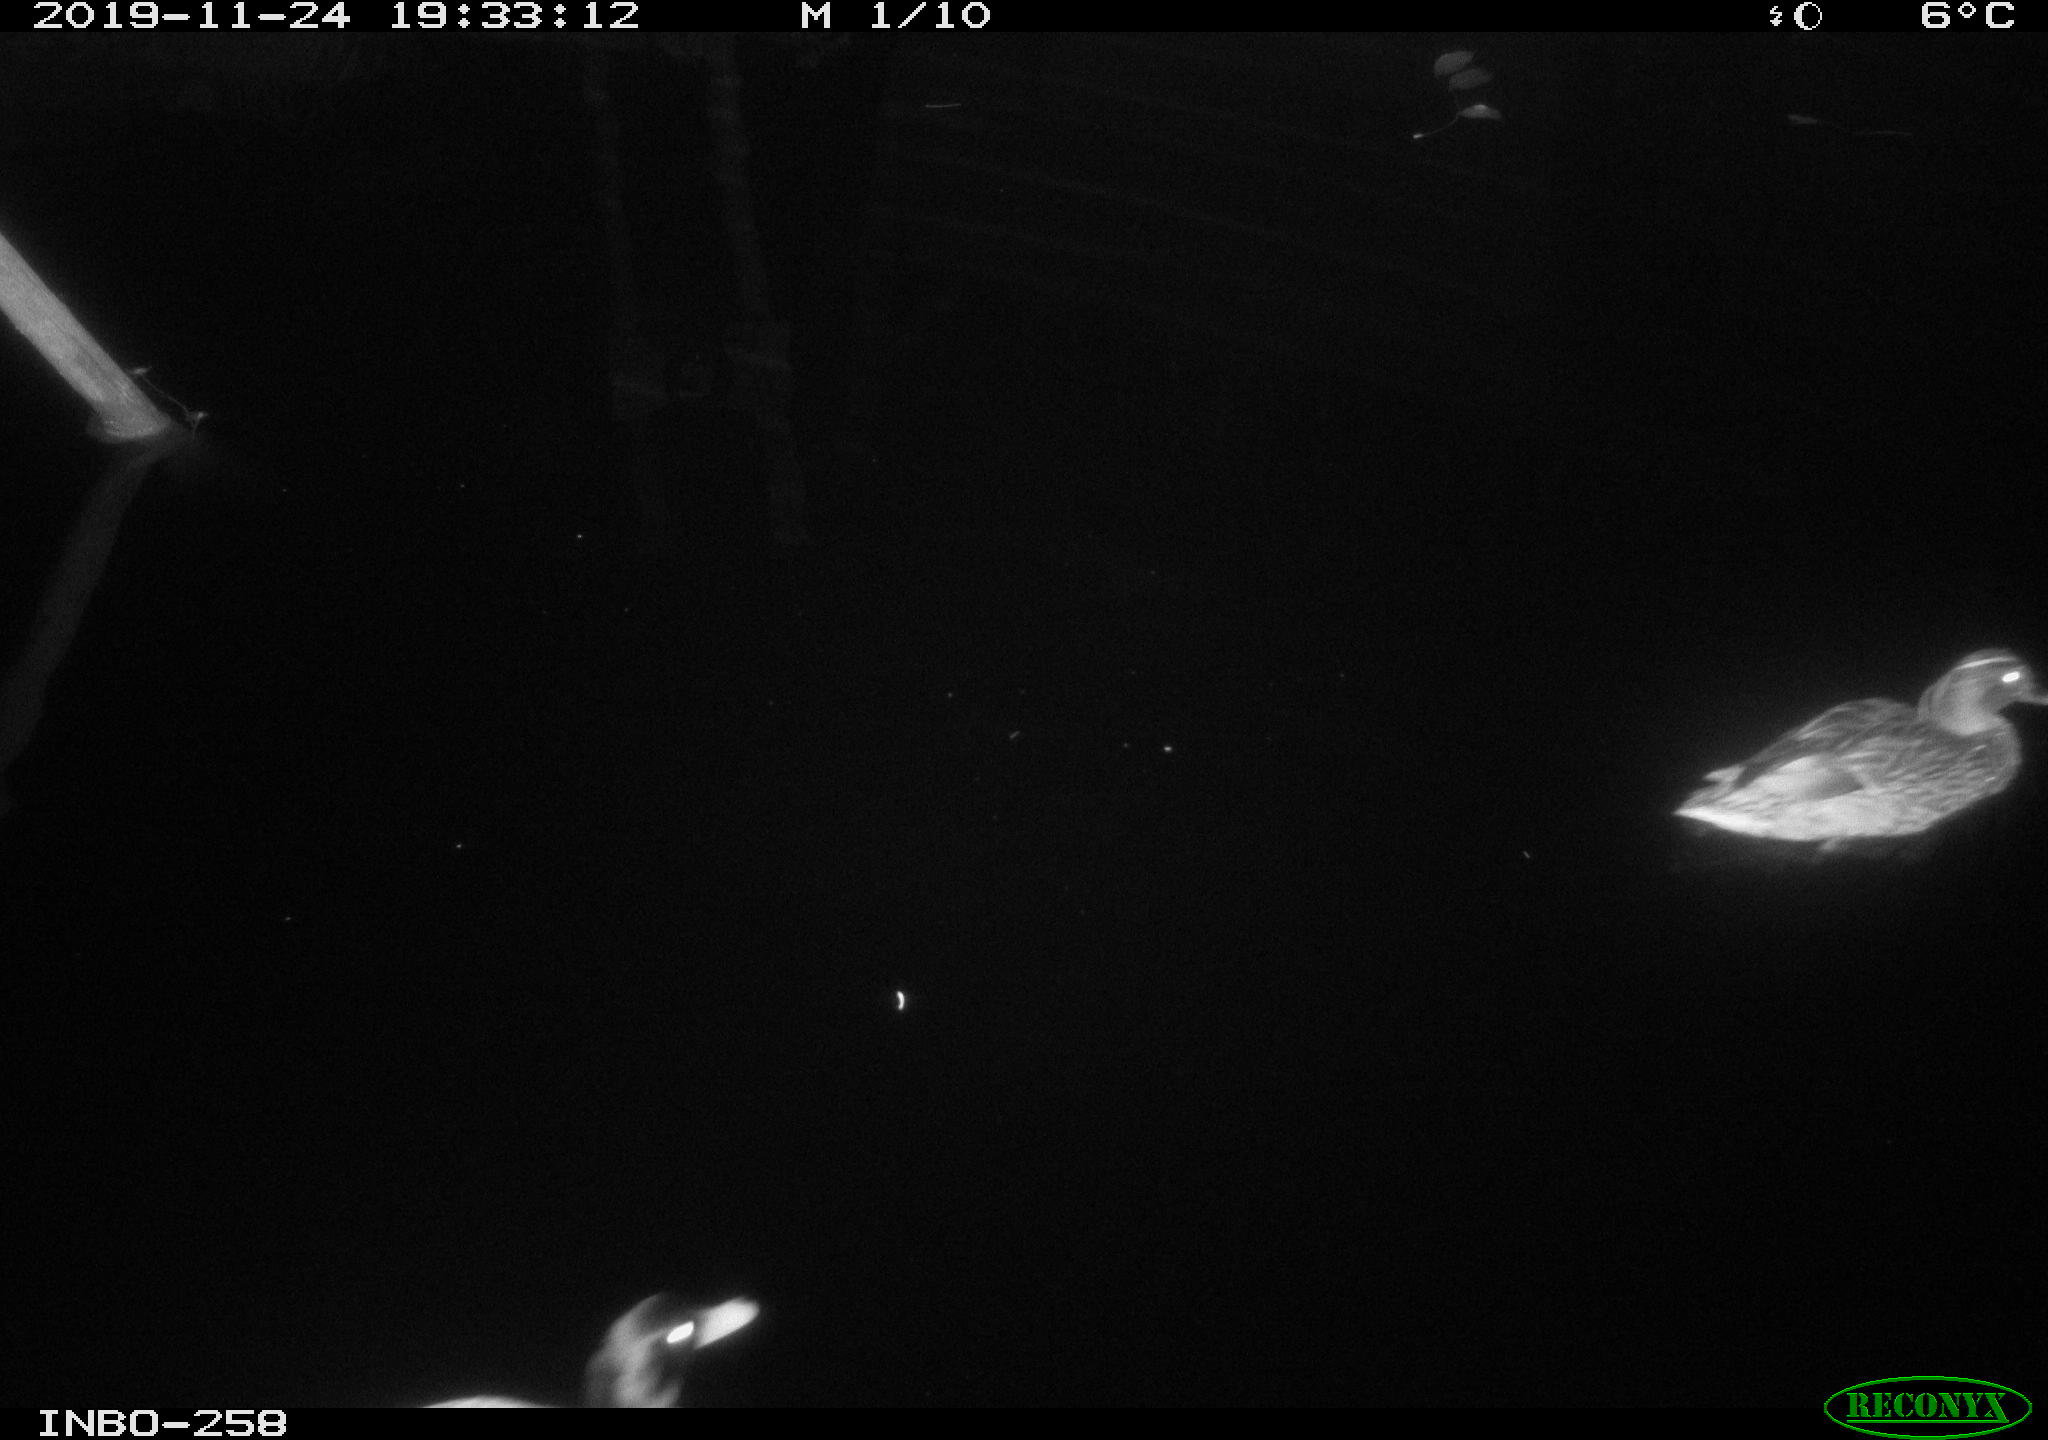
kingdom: Animalia
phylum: Chordata
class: Aves
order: Anseriformes
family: Anatidae
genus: Anas
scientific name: Anas platyrhynchos
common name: Mallard
